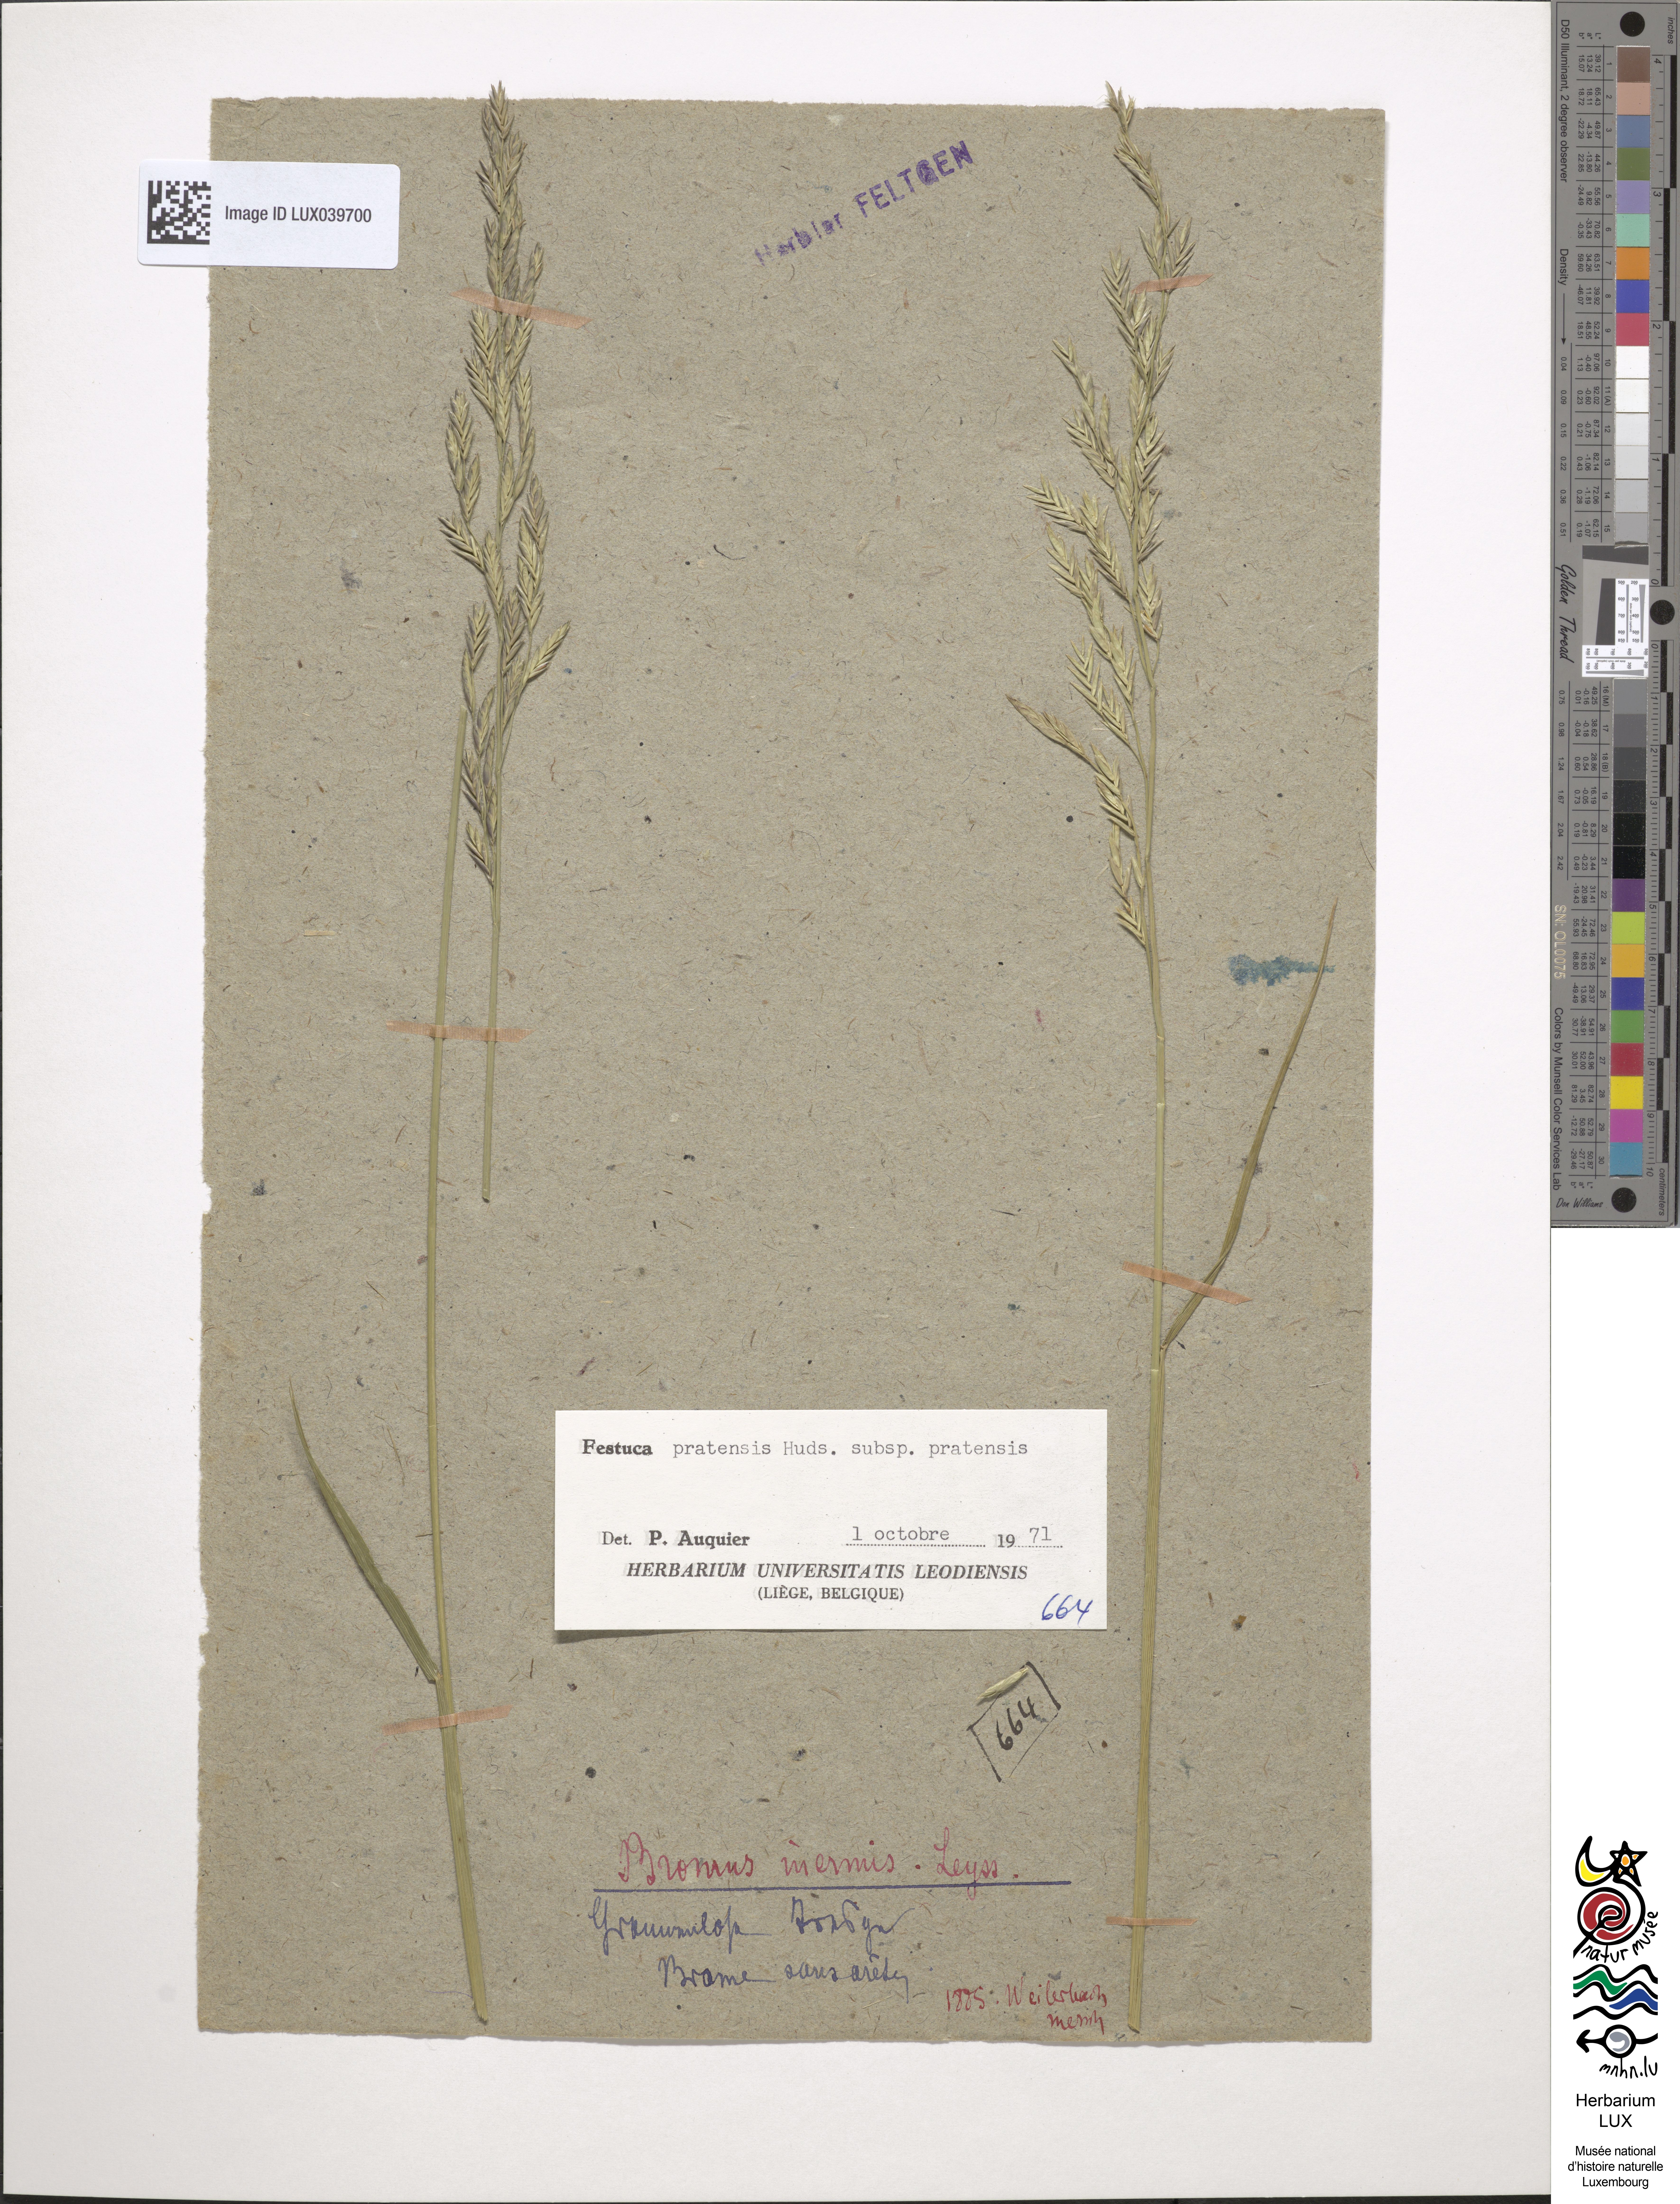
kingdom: Plantae
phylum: Tracheophyta
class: Liliopsida
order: Poales
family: Poaceae
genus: Bromus
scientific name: Bromus inermis
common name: Smooth brome
